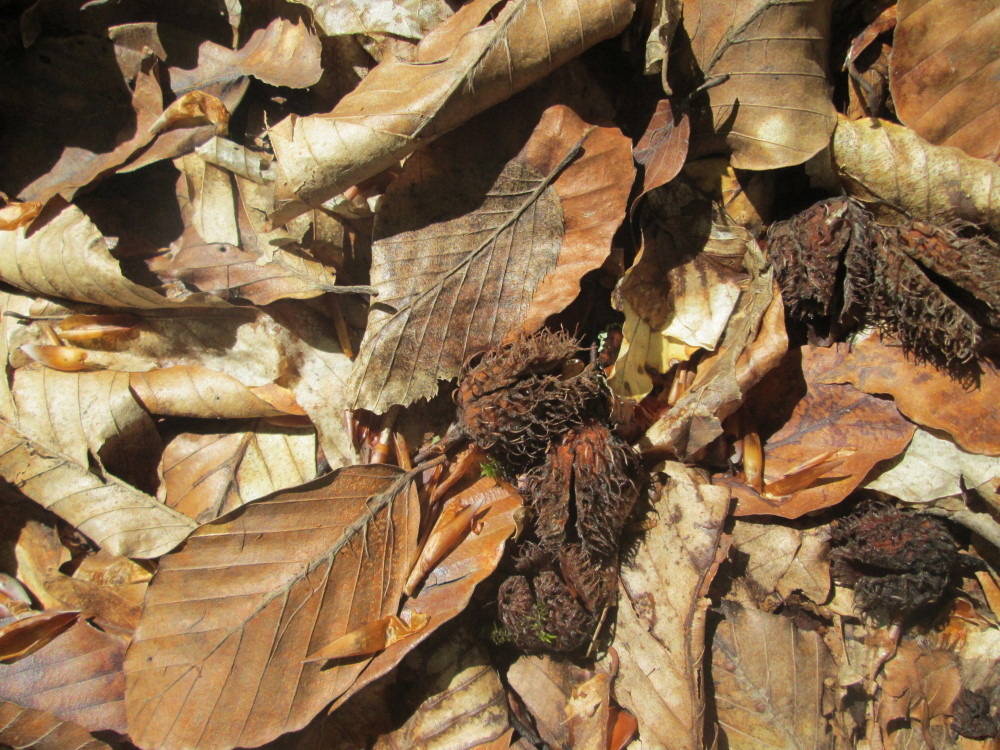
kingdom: Plantae
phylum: Tracheophyta
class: Magnoliopsida
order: Fagales
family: Fagaceae
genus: Fagus
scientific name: Fagus orientalis
